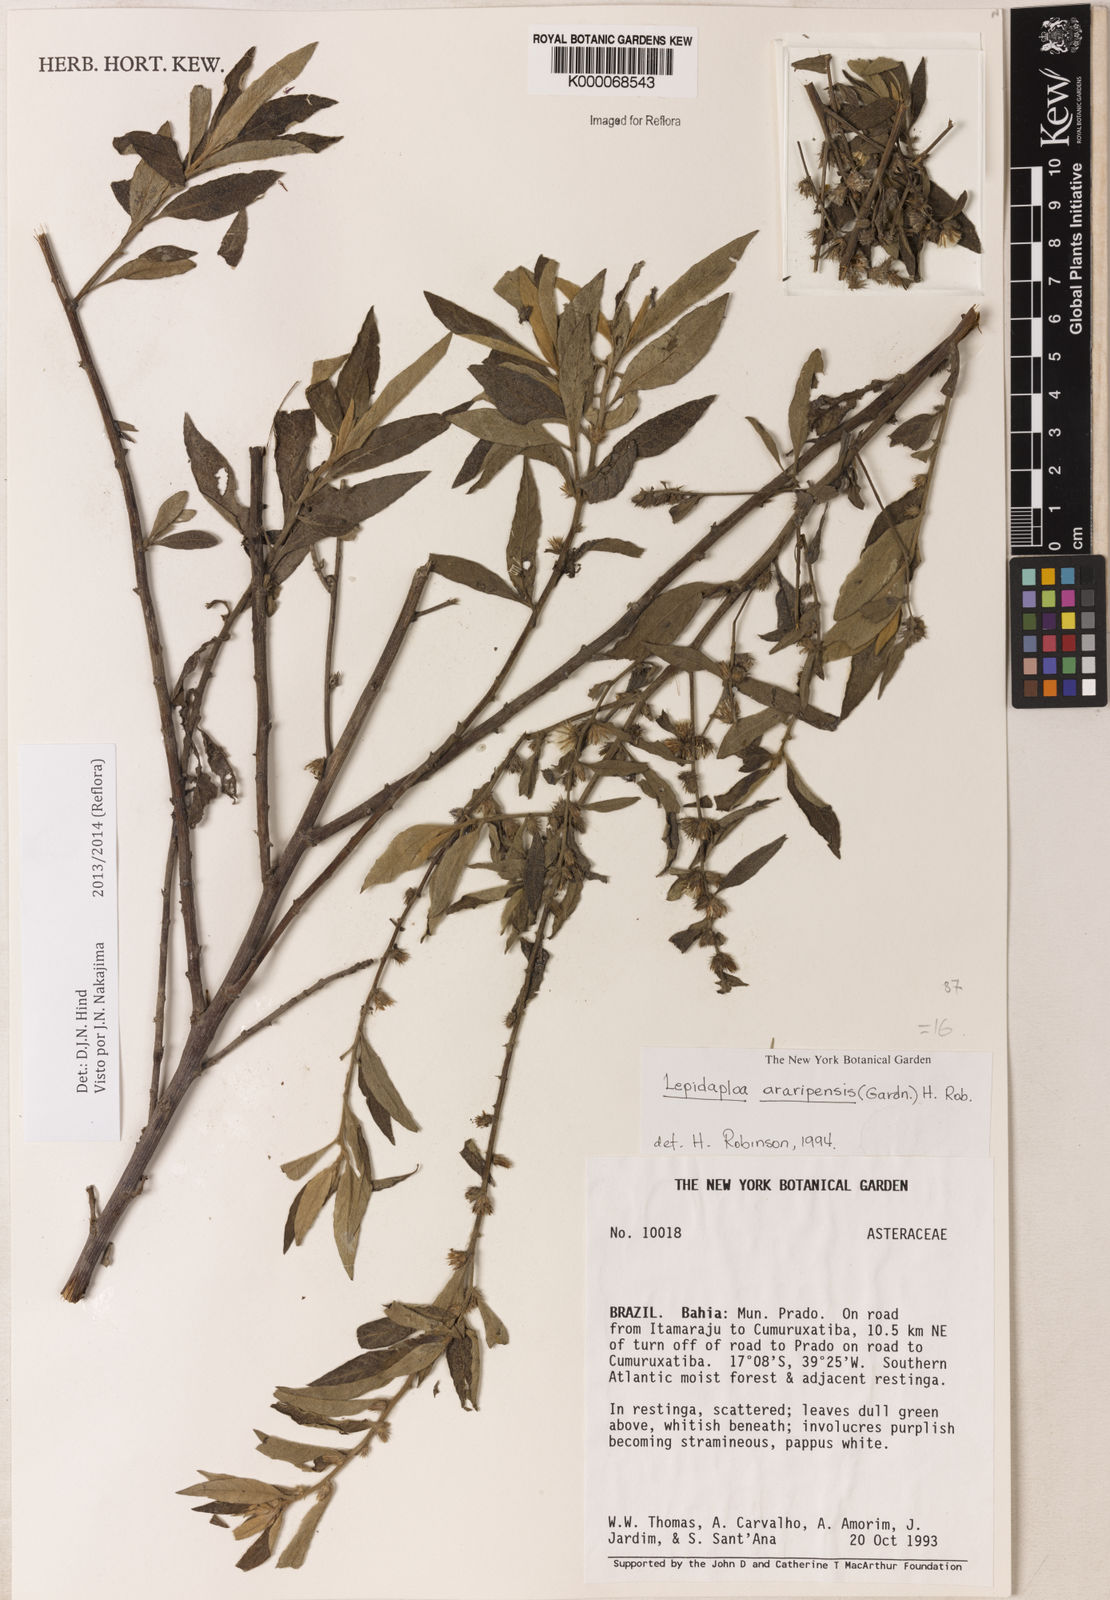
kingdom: Plantae
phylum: Tracheophyta
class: Magnoliopsida
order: Asterales
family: Asteraceae
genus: Lepidaploa
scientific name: Lepidaploa araripensis
